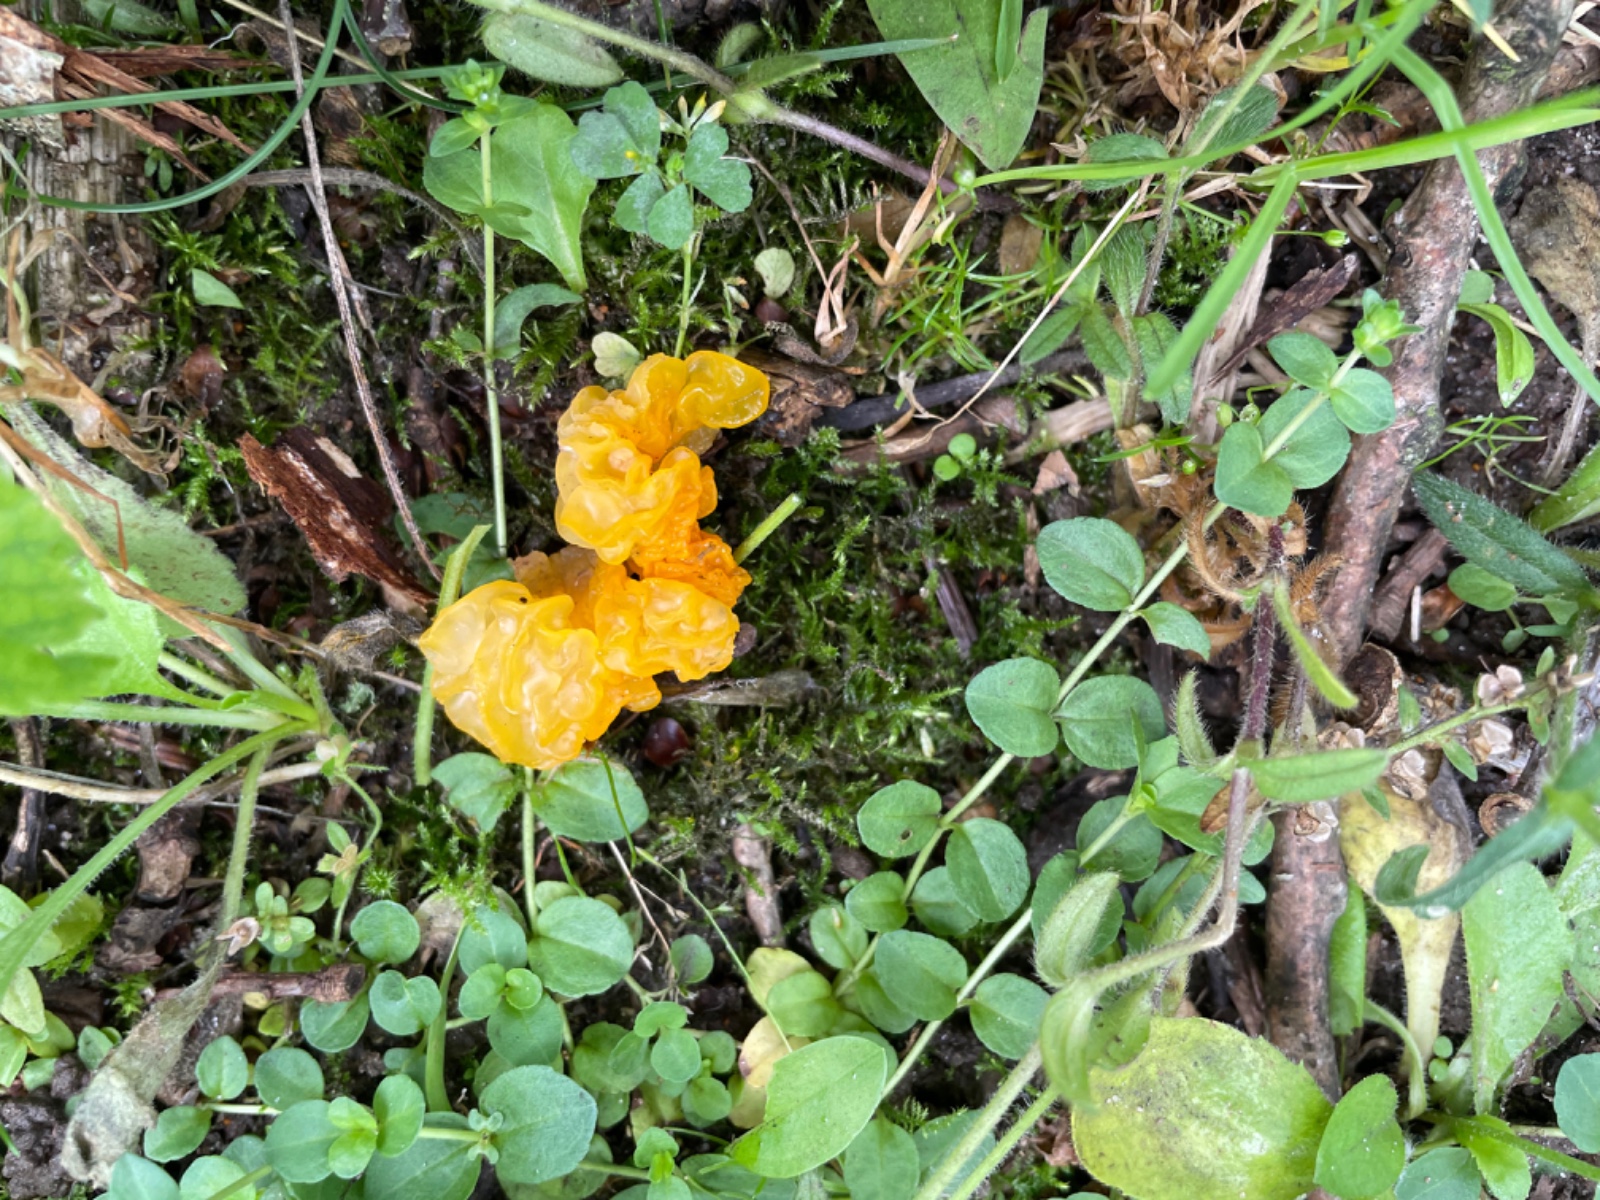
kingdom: Fungi
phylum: Basidiomycota
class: Tremellomycetes
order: Tremellales
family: Tremellaceae
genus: Tremella
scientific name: Tremella mesenterica
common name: gul bævresvamp
